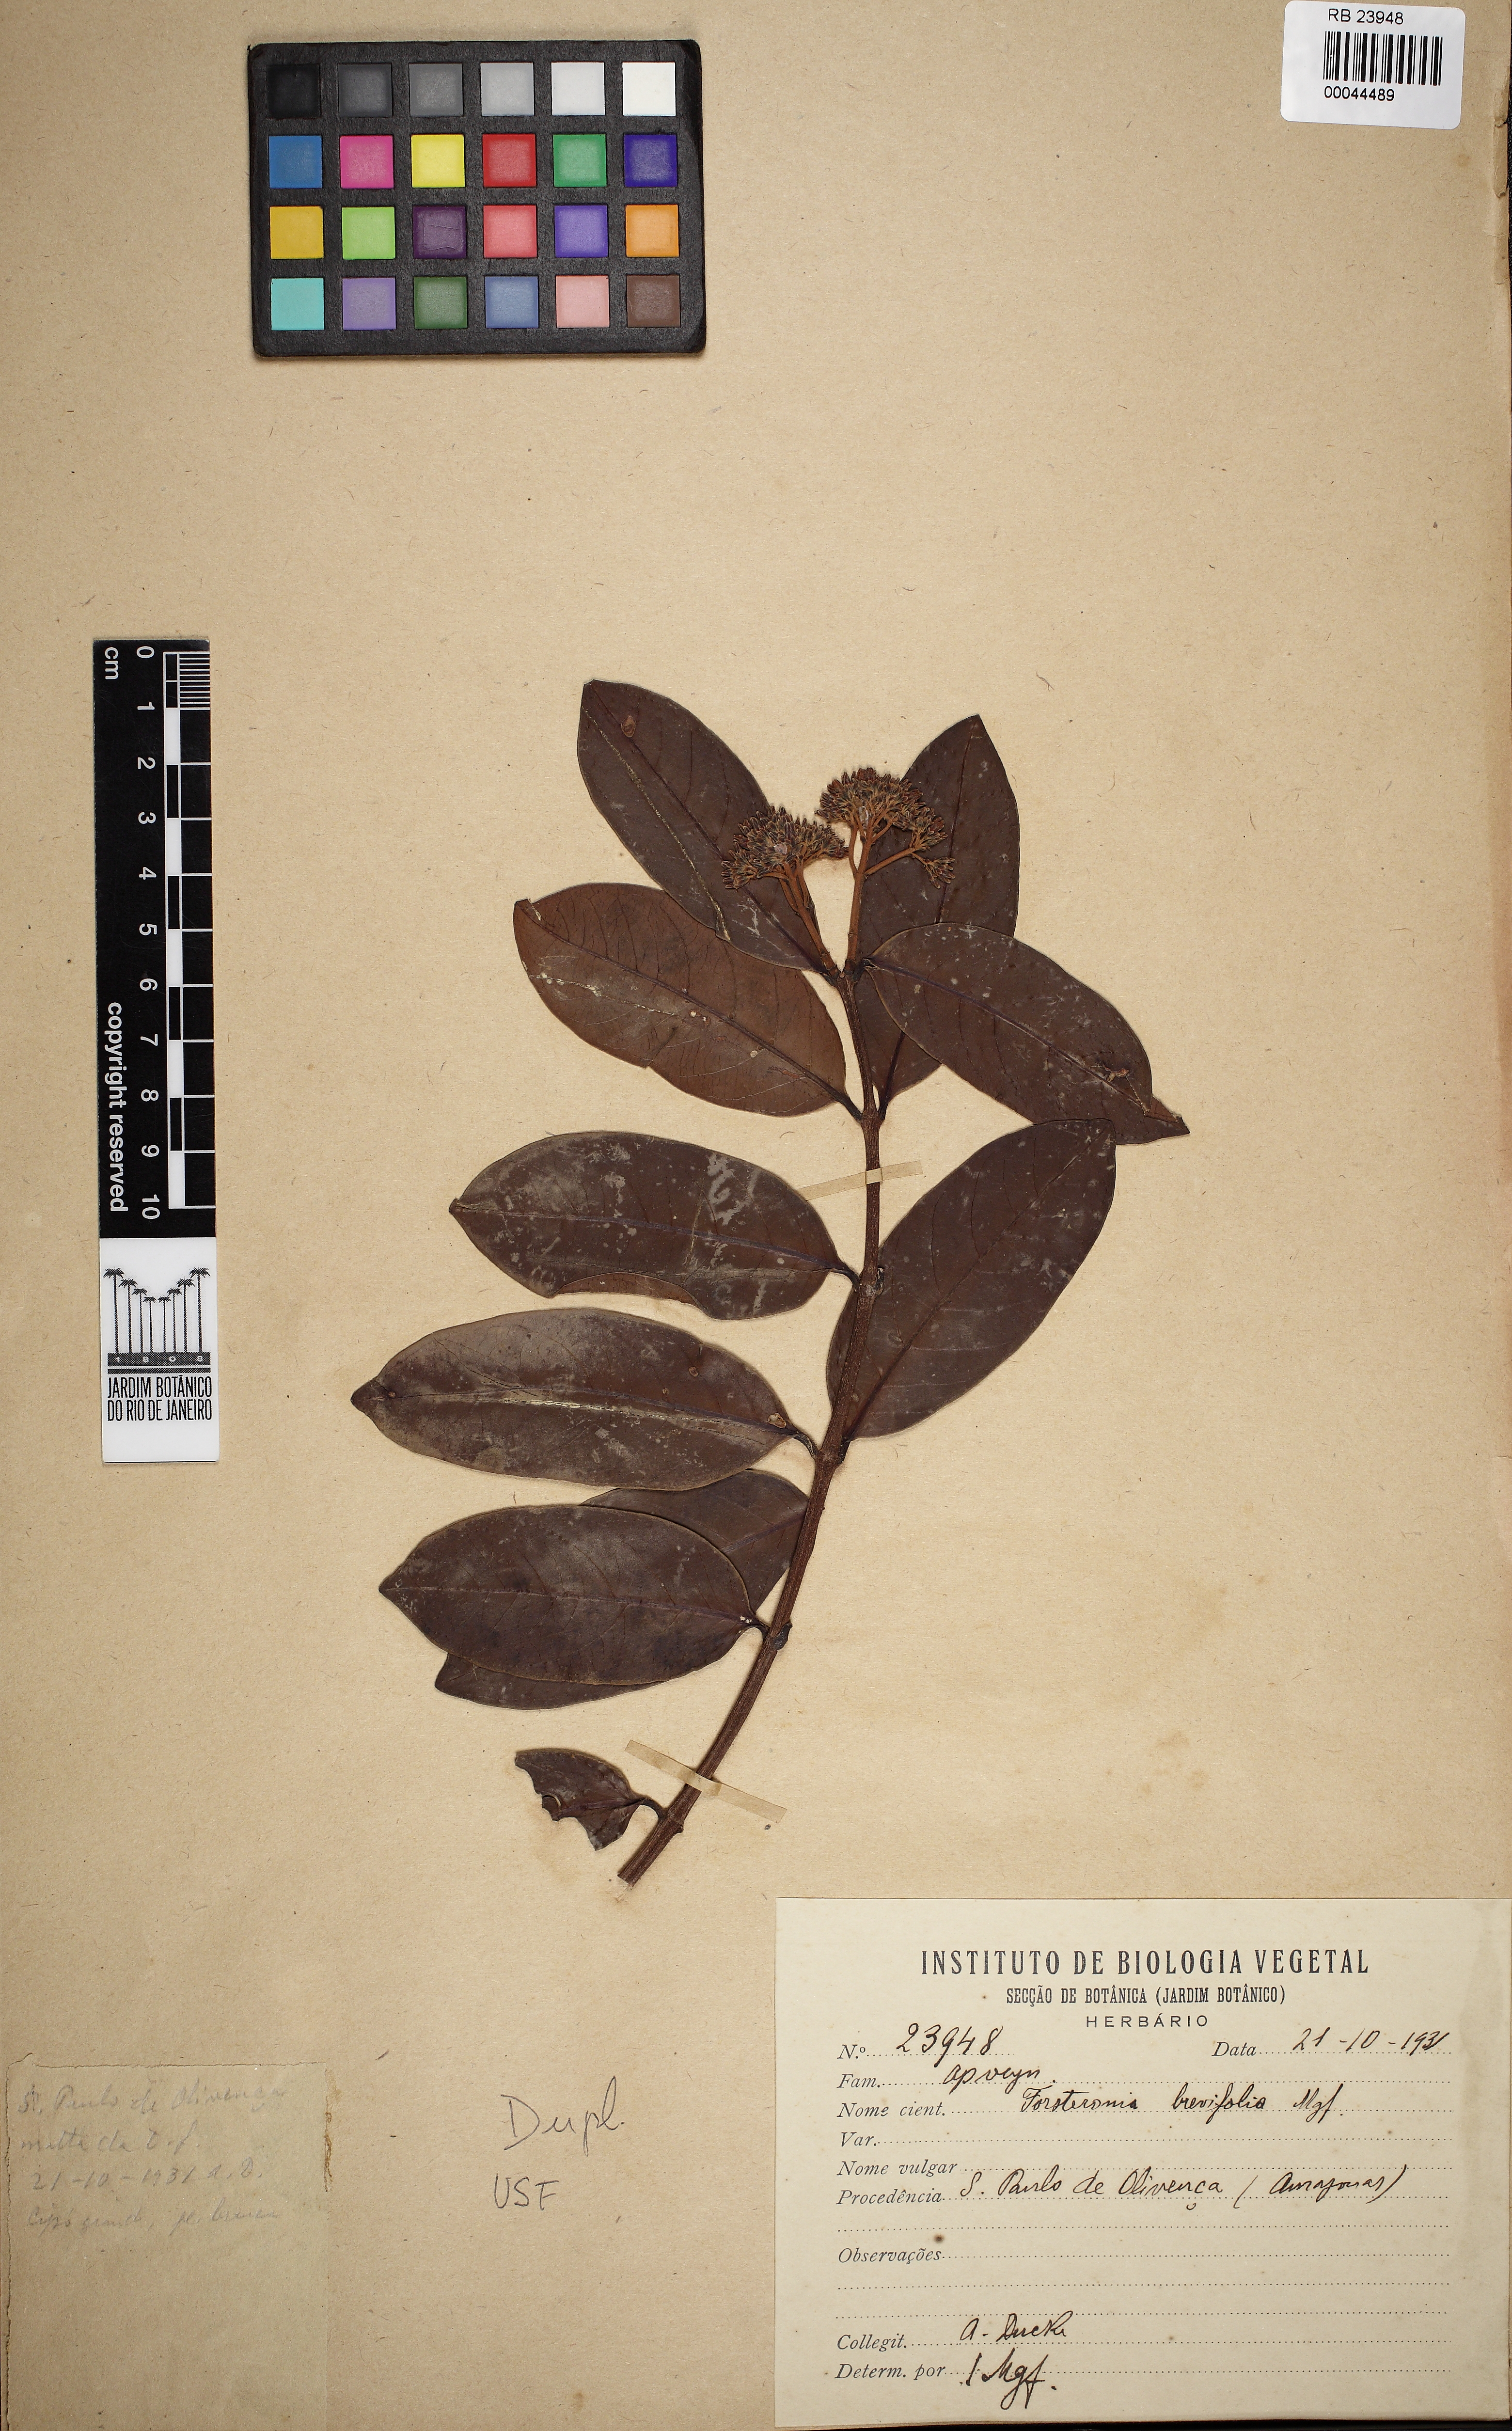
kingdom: Plantae
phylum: Tracheophyta
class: Magnoliopsida
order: Gentianales
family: Apocynaceae
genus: Forsteronia
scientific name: Forsteronia brevifolia
